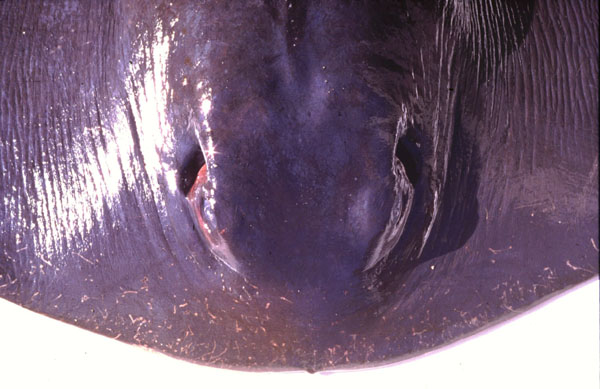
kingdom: Animalia
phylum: Chordata
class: Elasmobranchii
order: Myliobatiformes
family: Dasyatidae
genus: Pteroplatytrygon
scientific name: Pteroplatytrygon violacea
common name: Pelagic stingray
